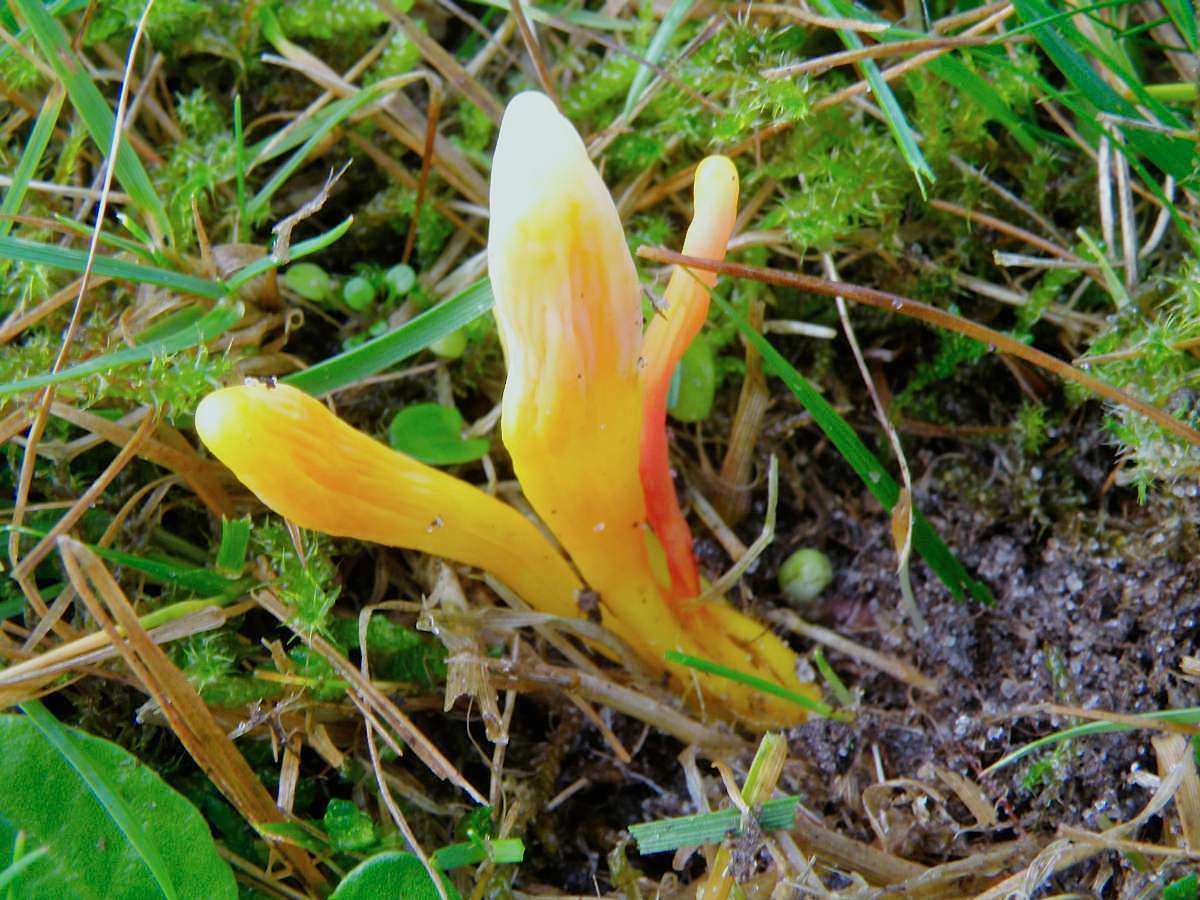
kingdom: Fungi
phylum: Basidiomycota
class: Agaricomycetes
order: Agaricales
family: Clavariaceae
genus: Clavulinopsis
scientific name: Clavulinopsis helvola
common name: orangegul køllesvamp
